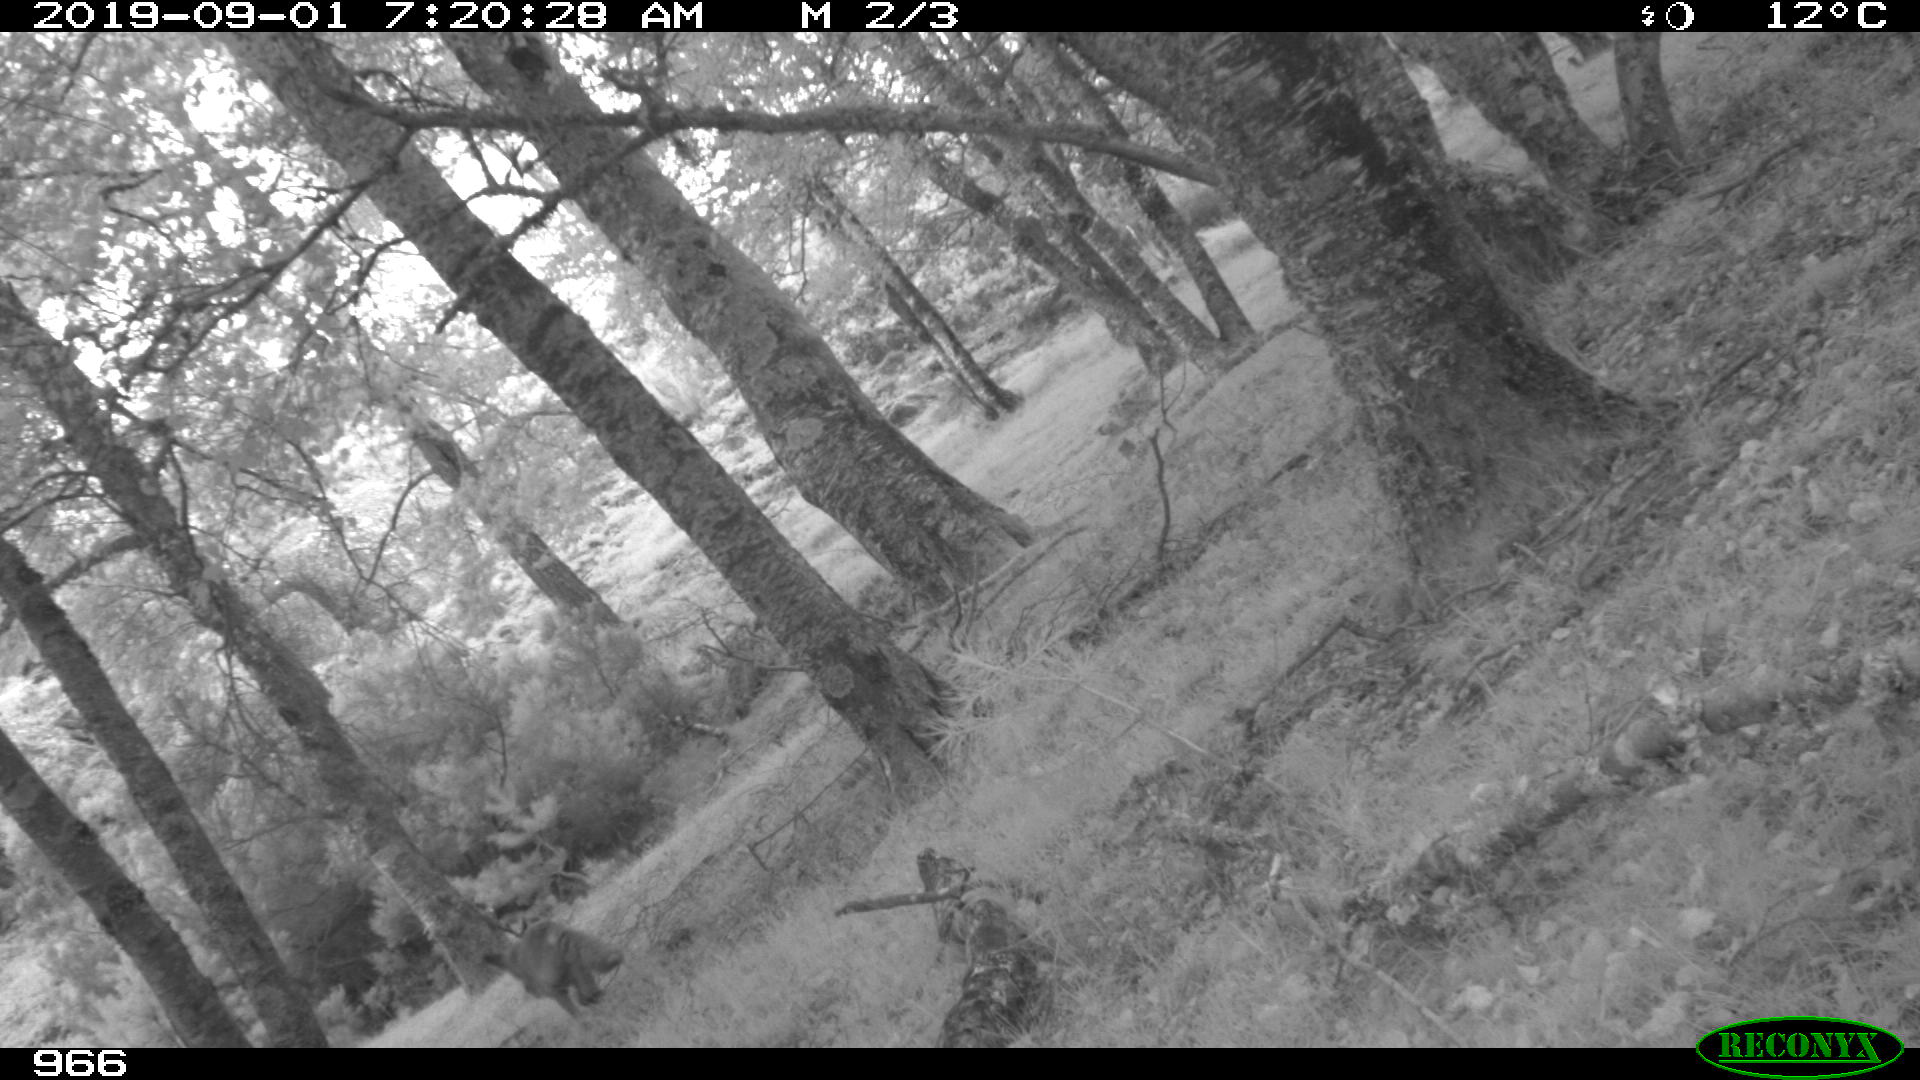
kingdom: Animalia
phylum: Chordata
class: Mammalia
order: Carnivora
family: Canidae
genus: Vulpes
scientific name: Vulpes vulpes
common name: Red fox
